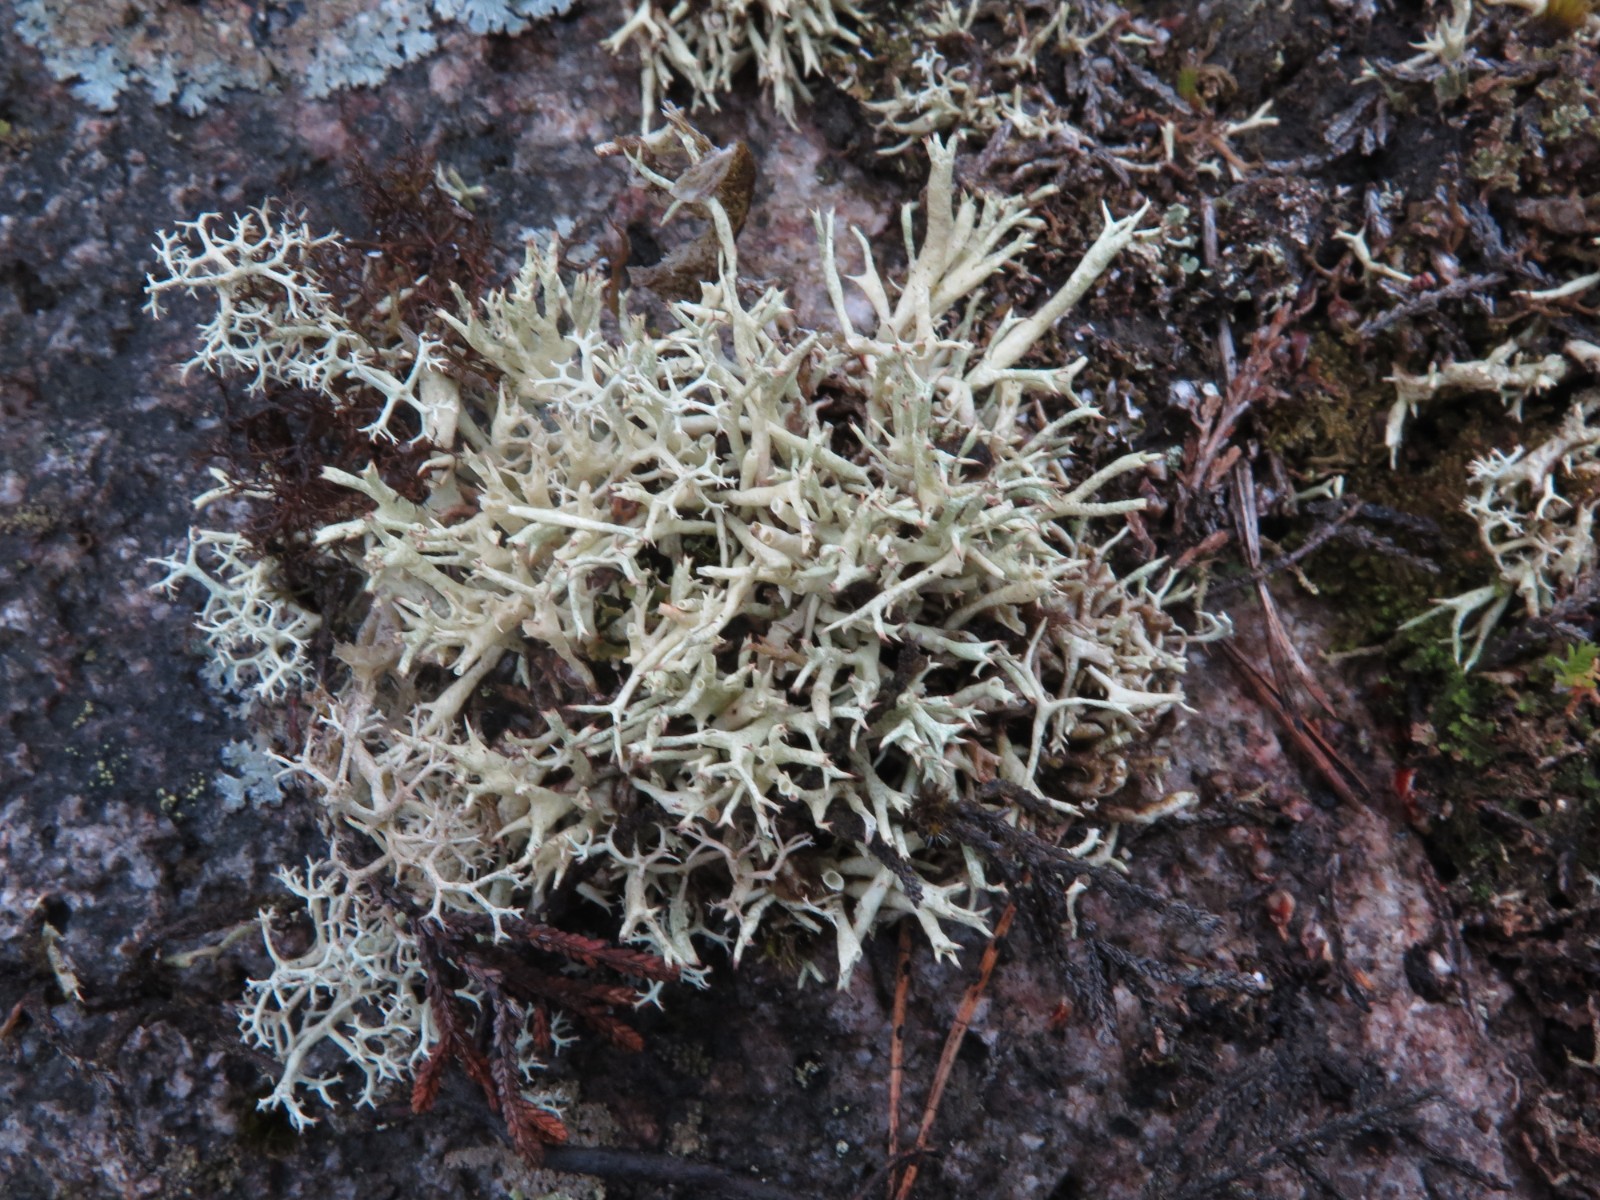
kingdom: Fungi
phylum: Ascomycota
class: Lecanoromycetes
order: Lecanorales
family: Cladoniaceae
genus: Cladonia
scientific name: Cladonia uncialis
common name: pigget bægerlav
